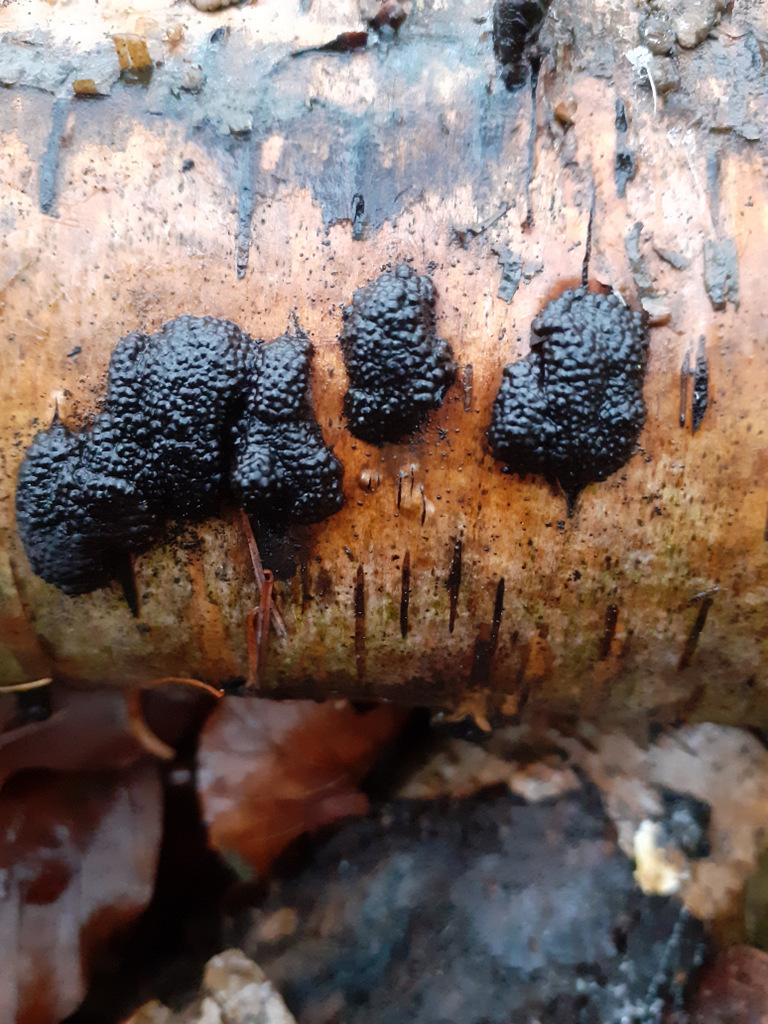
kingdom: Fungi
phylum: Ascomycota
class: Sordariomycetes
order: Xylariales
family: Hypoxylaceae
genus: Jackrogersella
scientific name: Jackrogersella multiformis
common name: foranderlig kulbær
